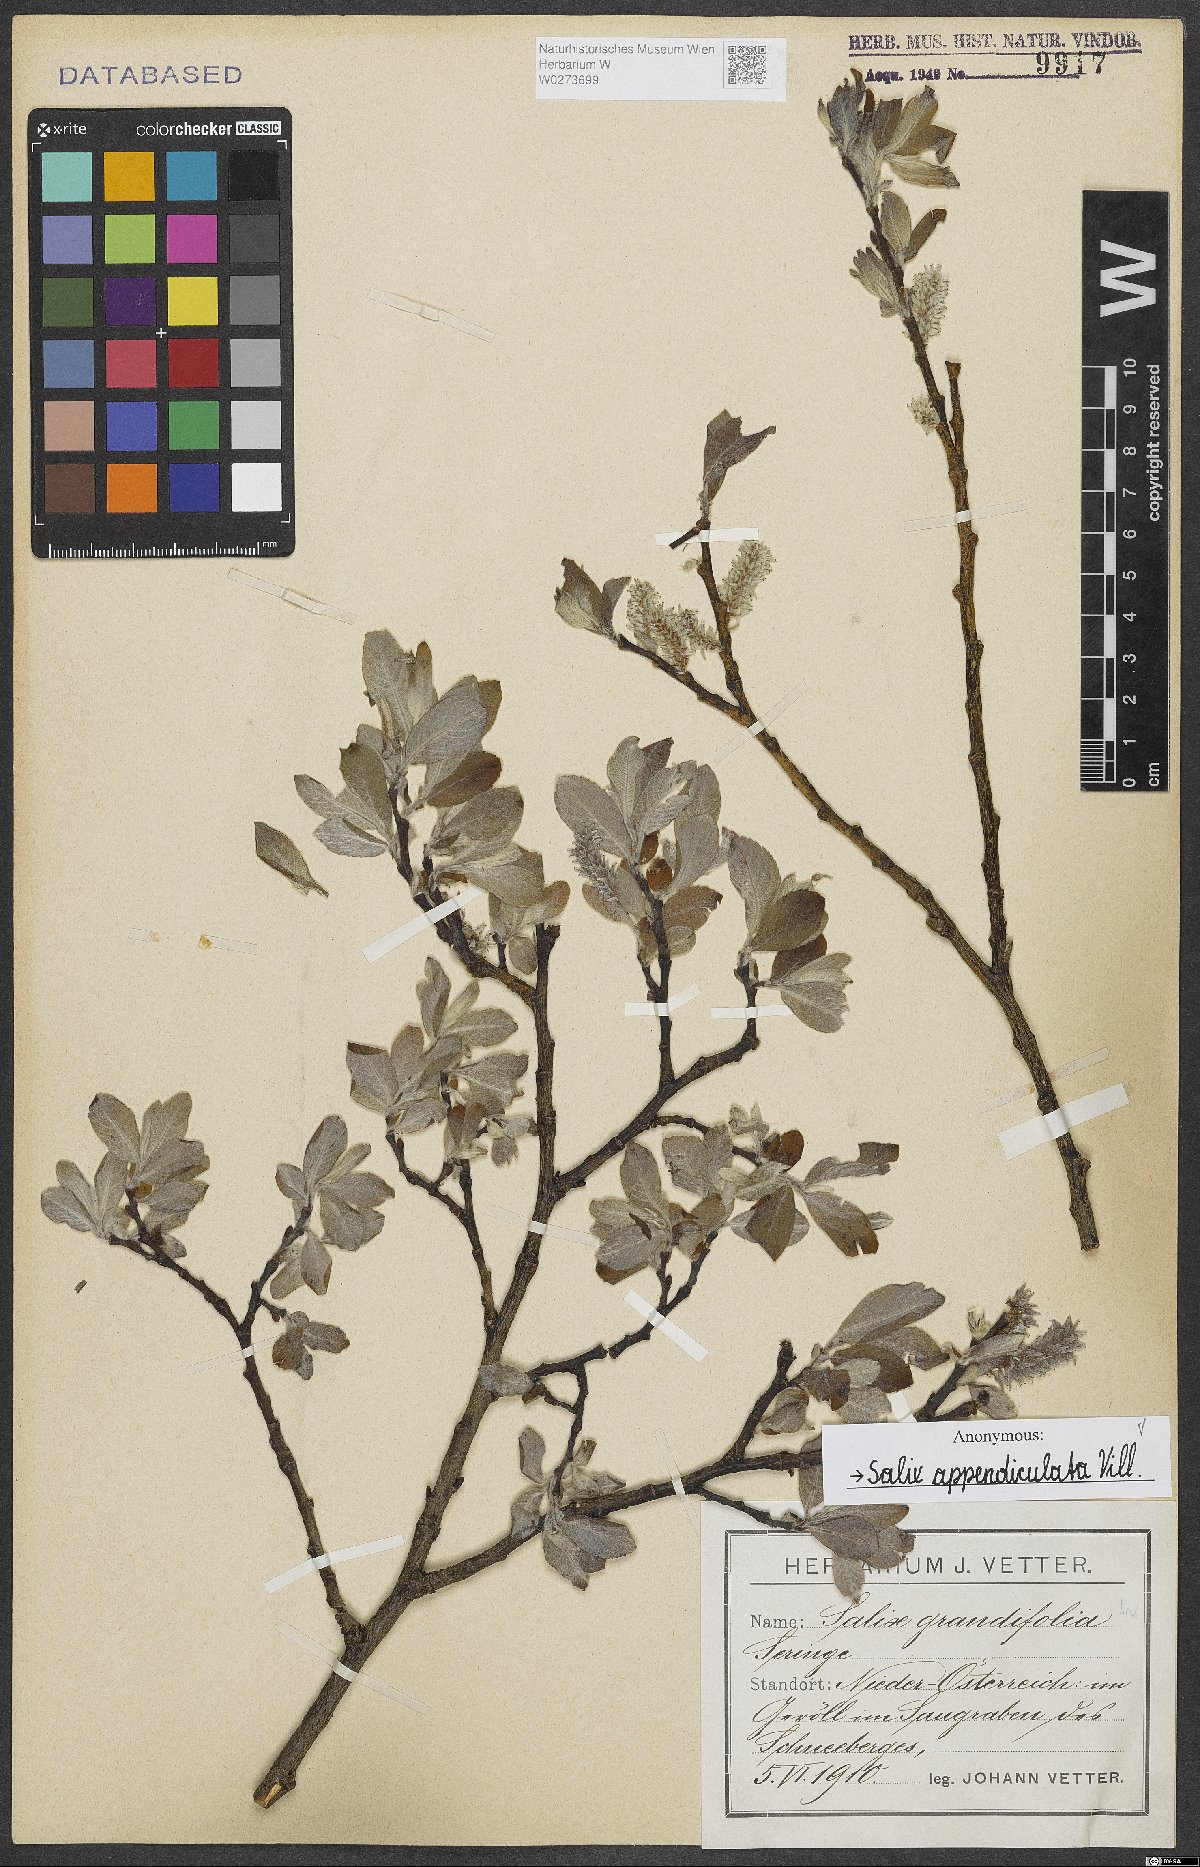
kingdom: Plantae
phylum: Tracheophyta
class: Magnoliopsida
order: Malpighiales
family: Salicaceae
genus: Salix
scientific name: Salix appendiculata
